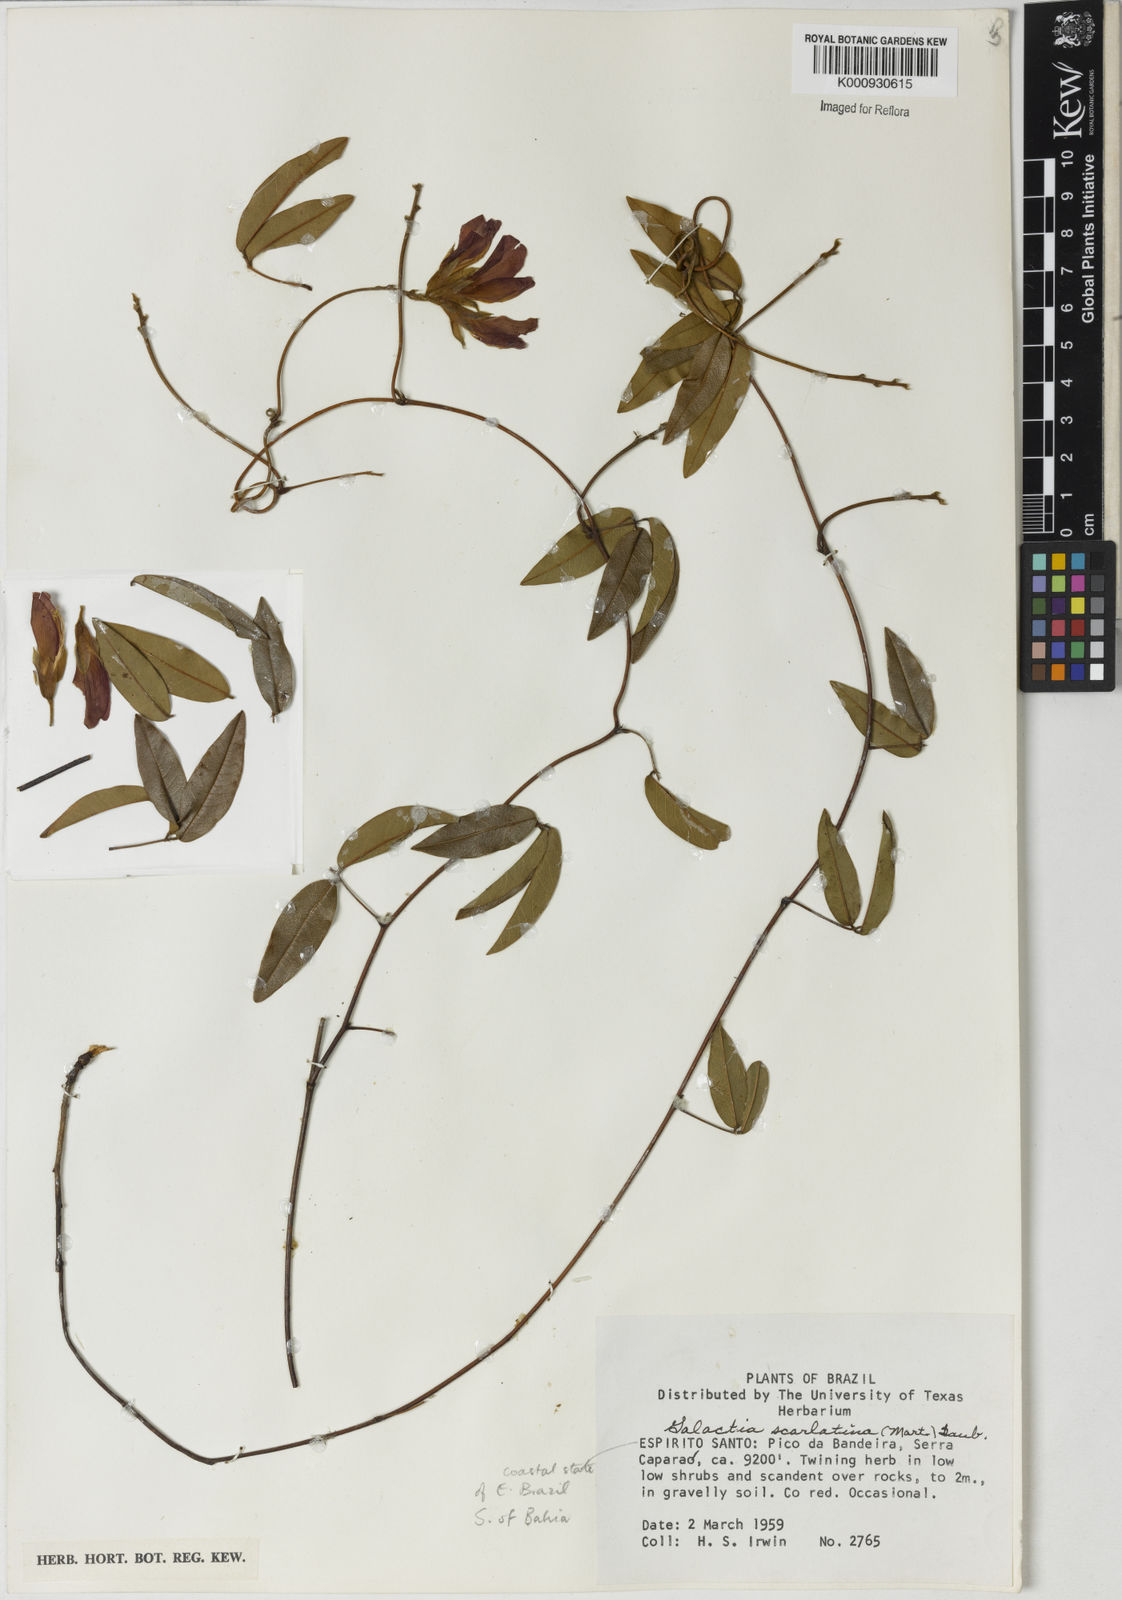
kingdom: Plantae
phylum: Tracheophyta
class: Magnoliopsida
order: Fabales
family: Fabaceae
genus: Betencourtia
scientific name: Betencourtia scarlatina
